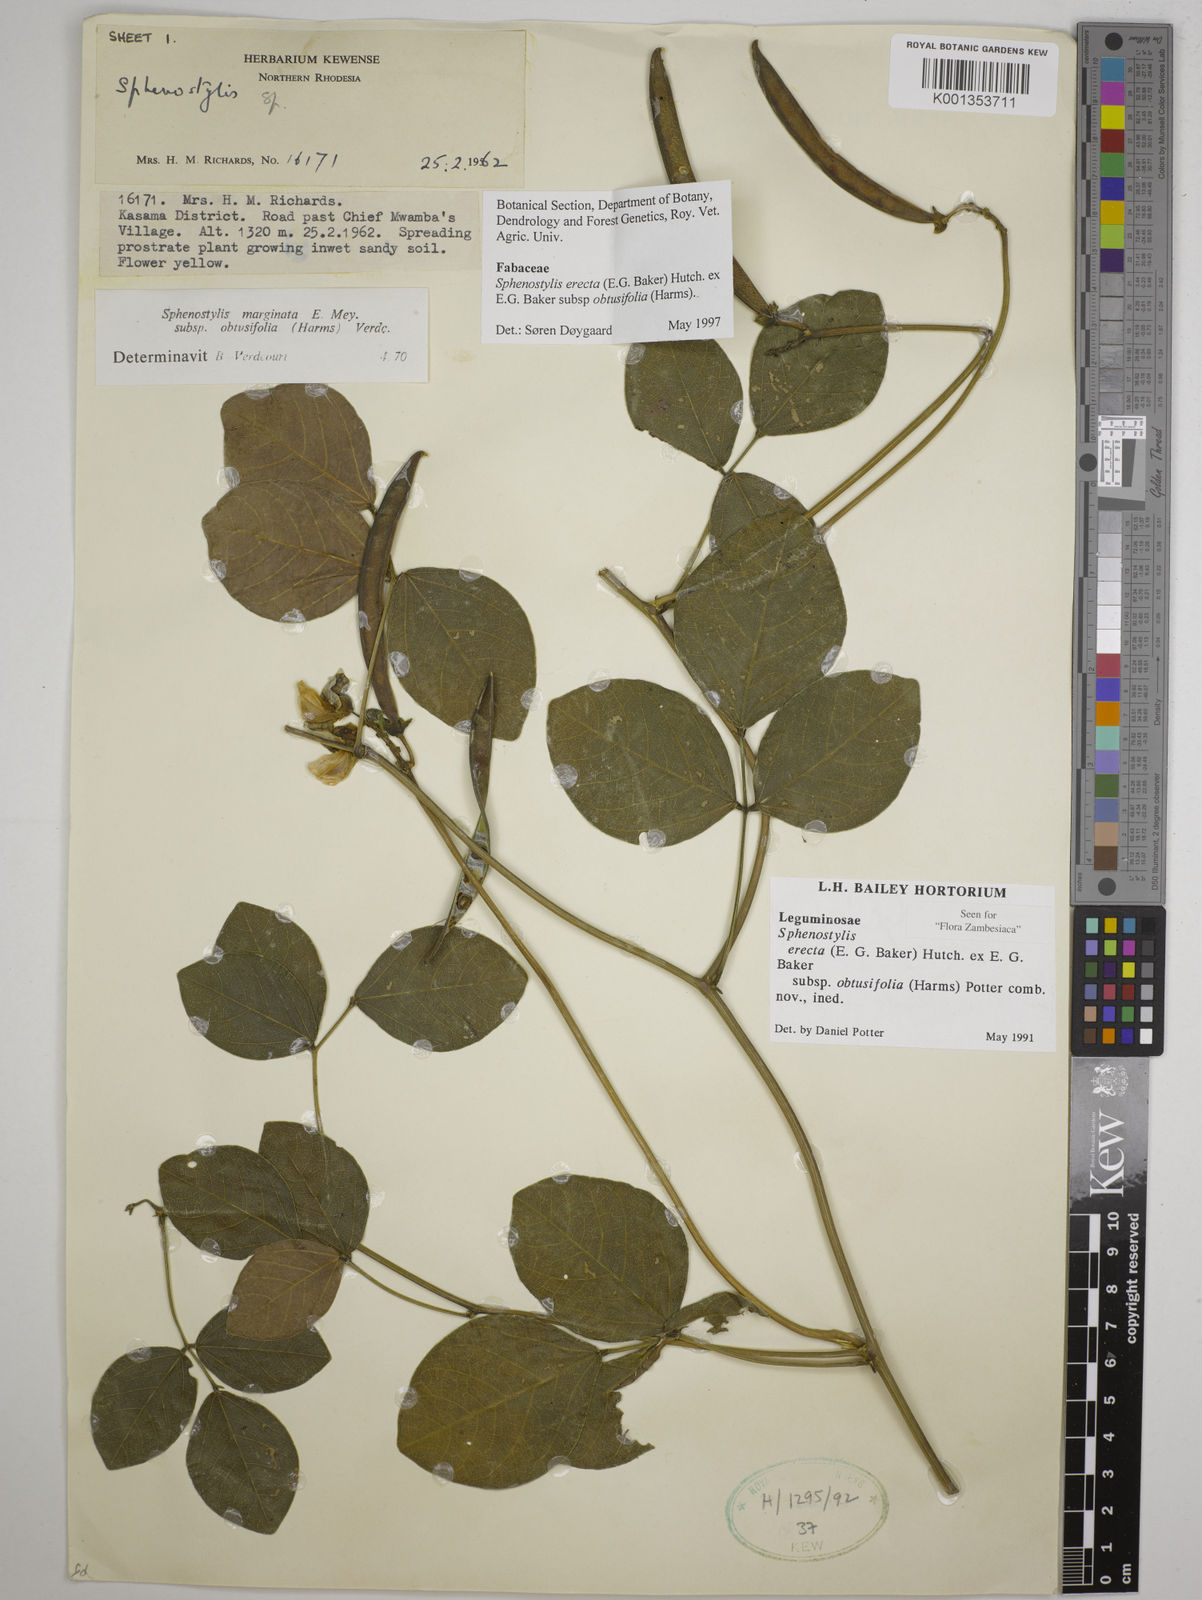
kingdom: Plantae
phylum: Tracheophyta
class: Magnoliopsida
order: Fabales
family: Fabaceae
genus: Sphenostylis
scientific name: Sphenostylis
